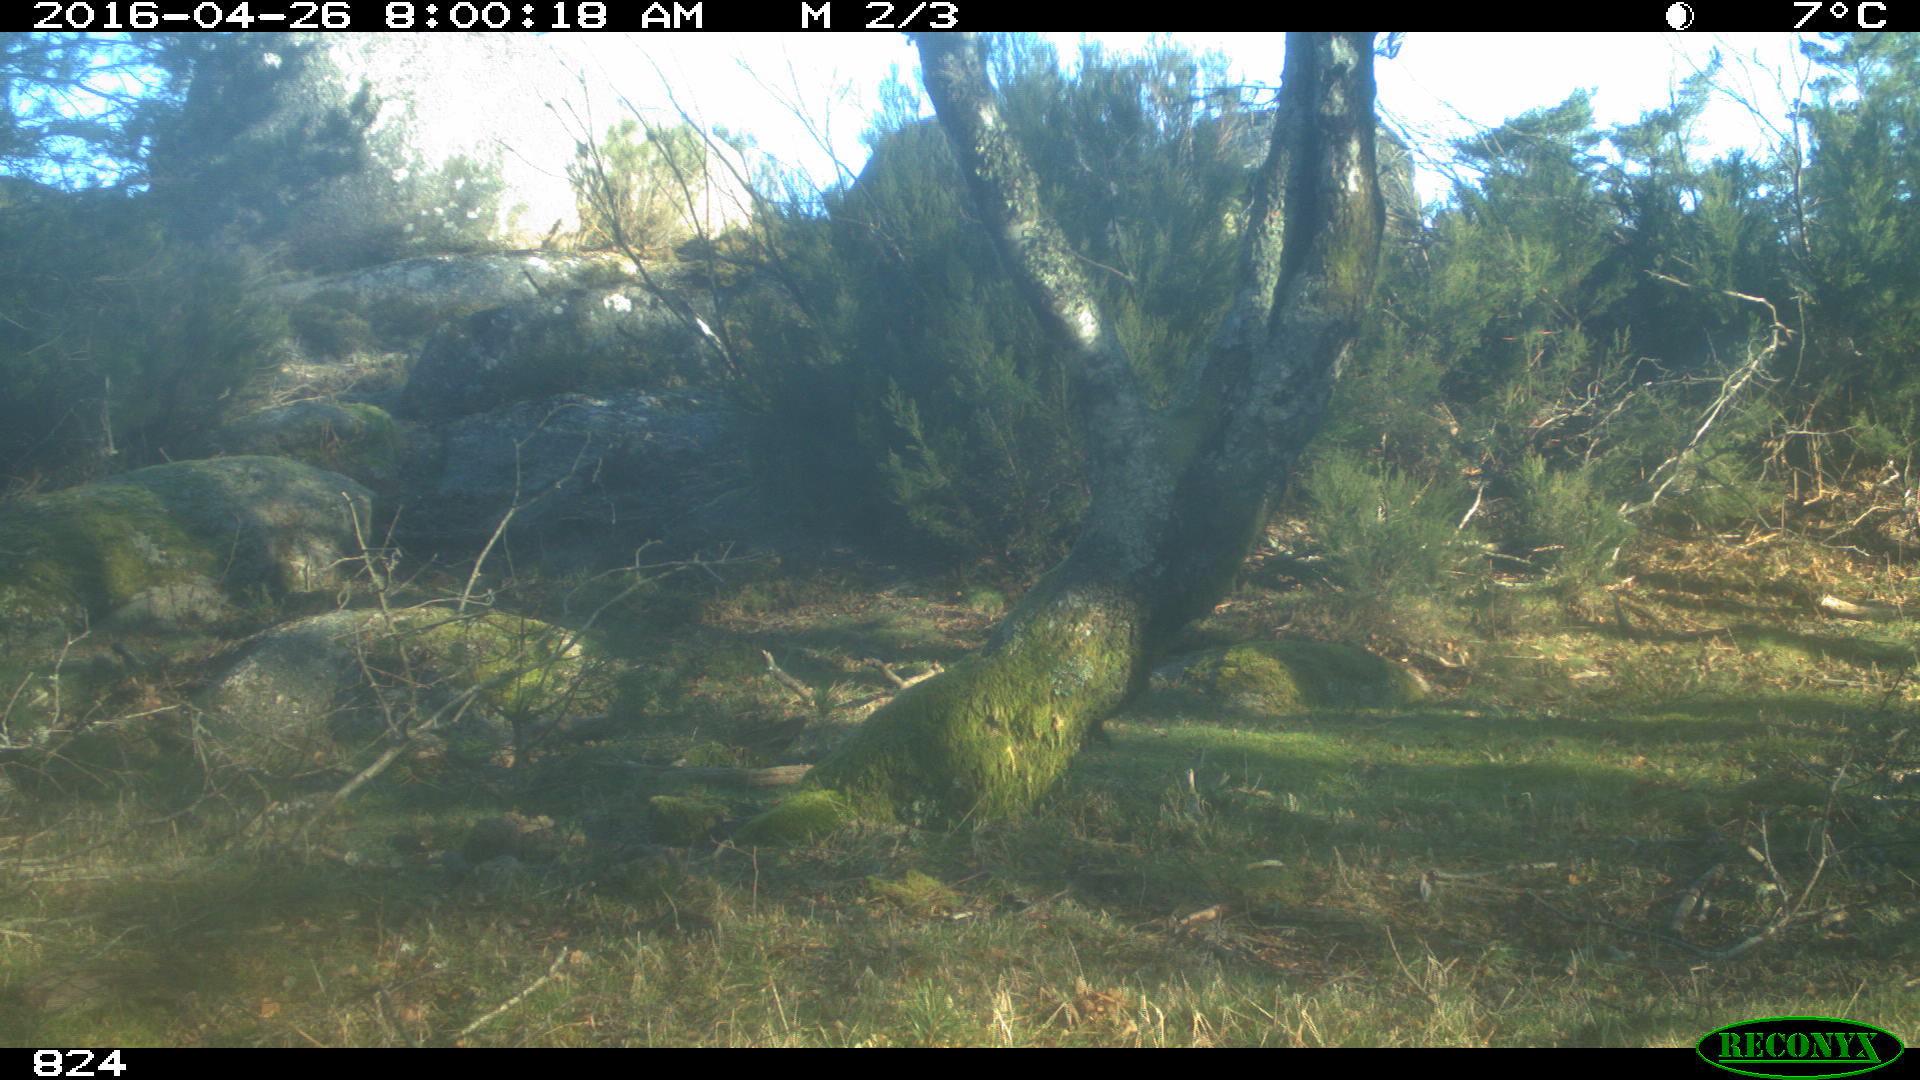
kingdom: Animalia
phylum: Chordata
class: Mammalia
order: Lagomorpha
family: Leporidae
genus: Oryctolagus
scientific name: Oryctolagus cuniculus
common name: European rabbit
